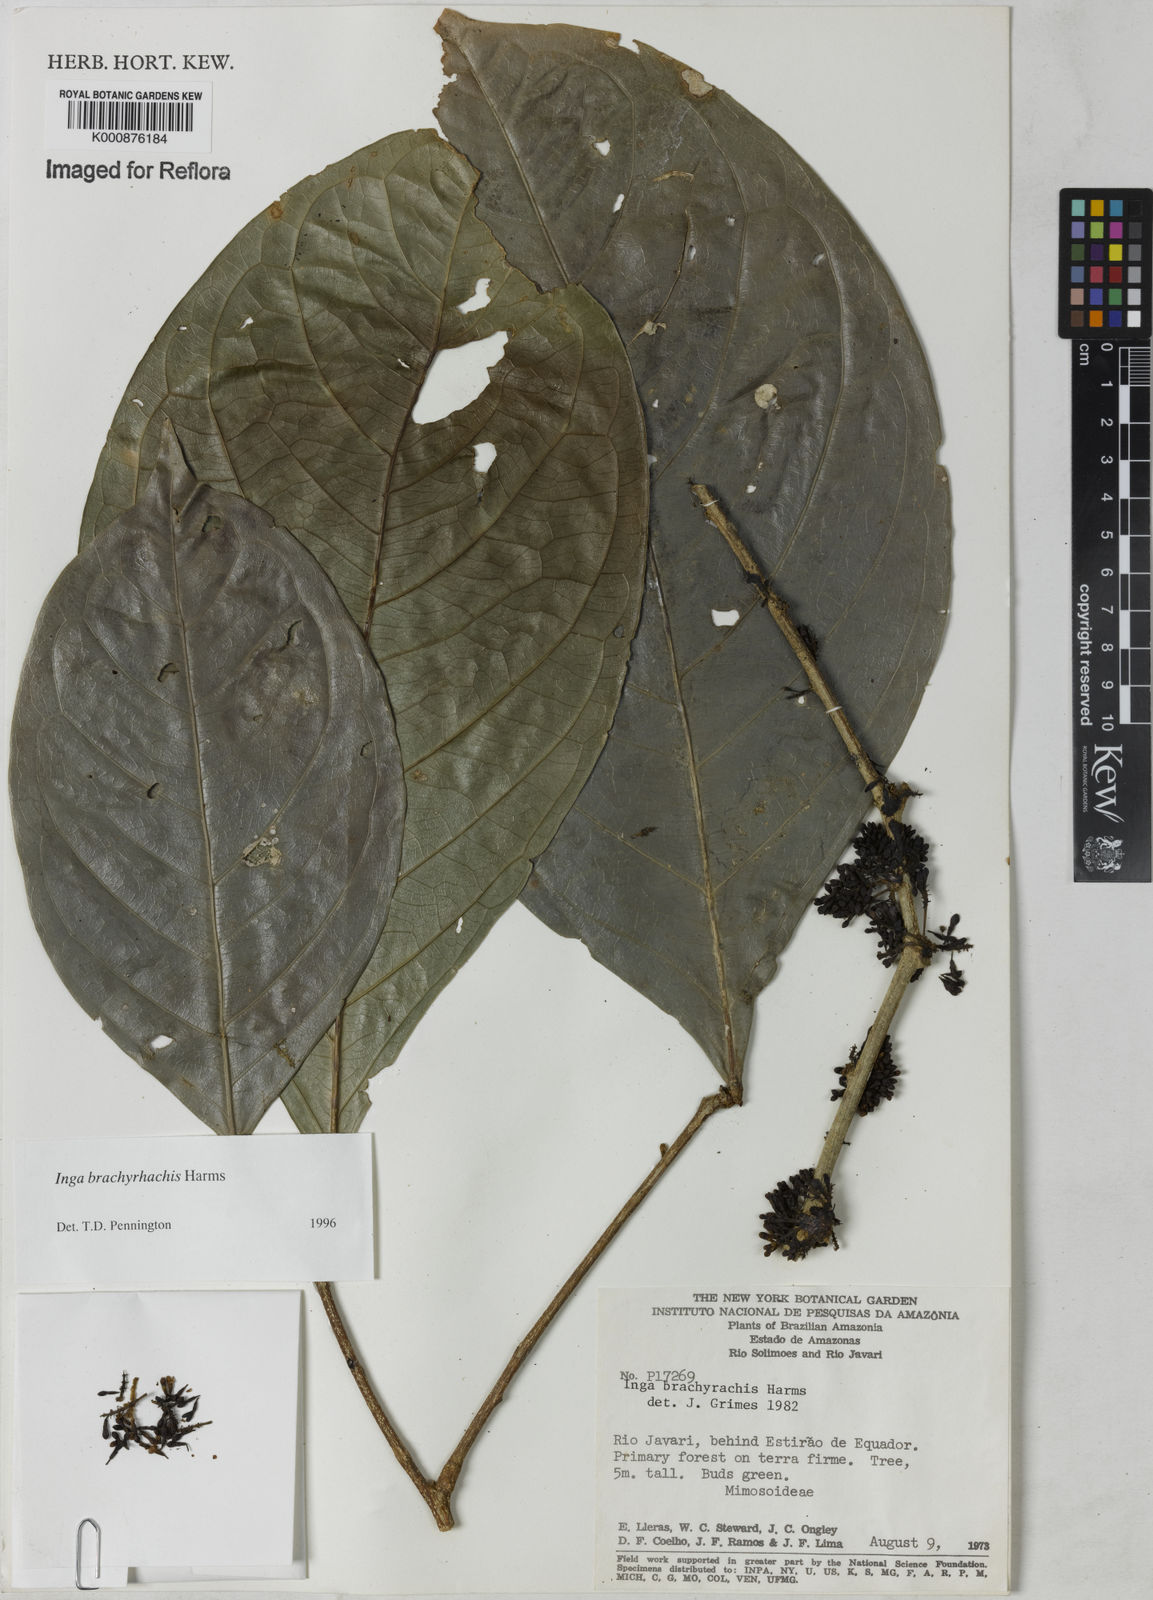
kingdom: Plantae
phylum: Tracheophyta
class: Magnoliopsida
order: Fabales
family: Fabaceae
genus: Inga
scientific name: Inga brachyrhachis
